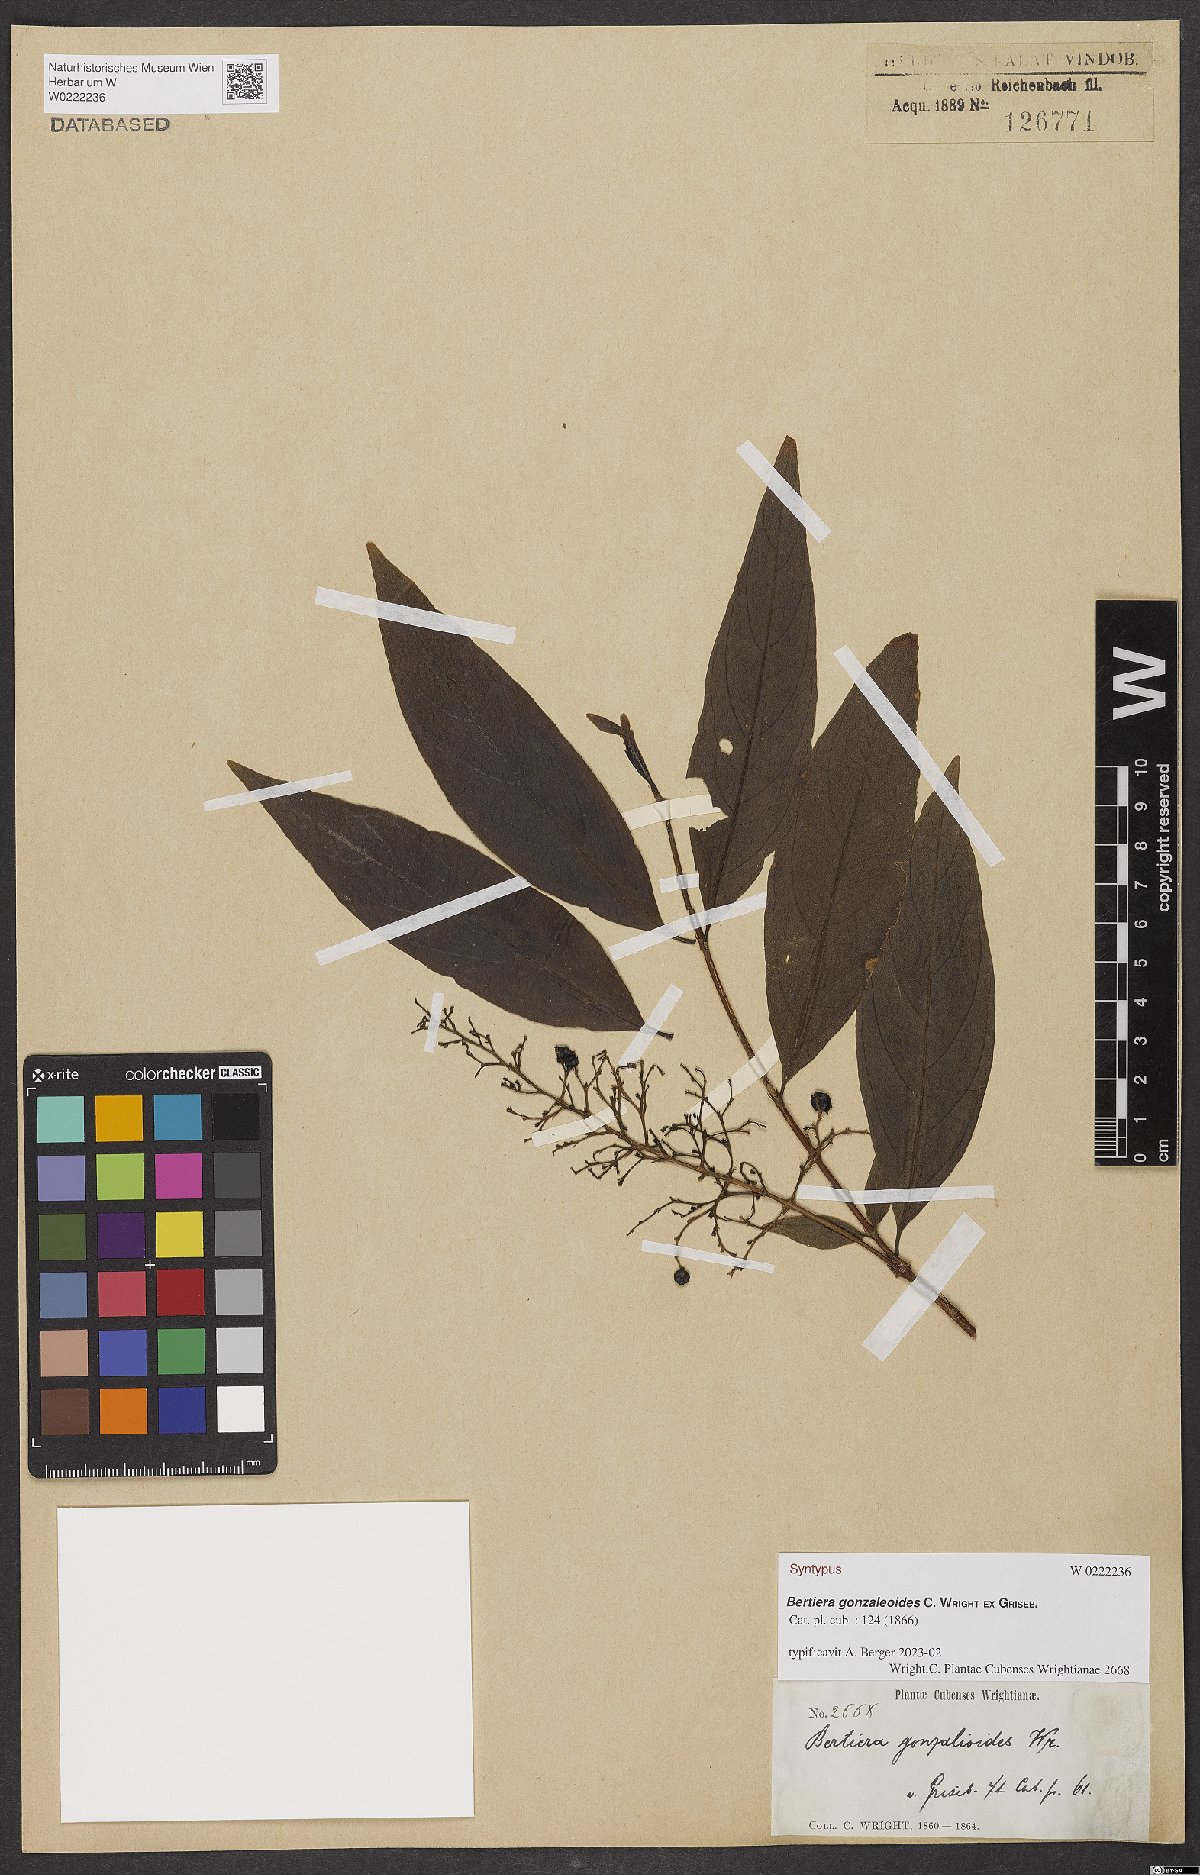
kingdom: Plantae
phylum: Tracheophyta
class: Magnoliopsida
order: Gentianales
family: Rubiaceae
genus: Bertiera
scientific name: Bertiera gonzaleoides
